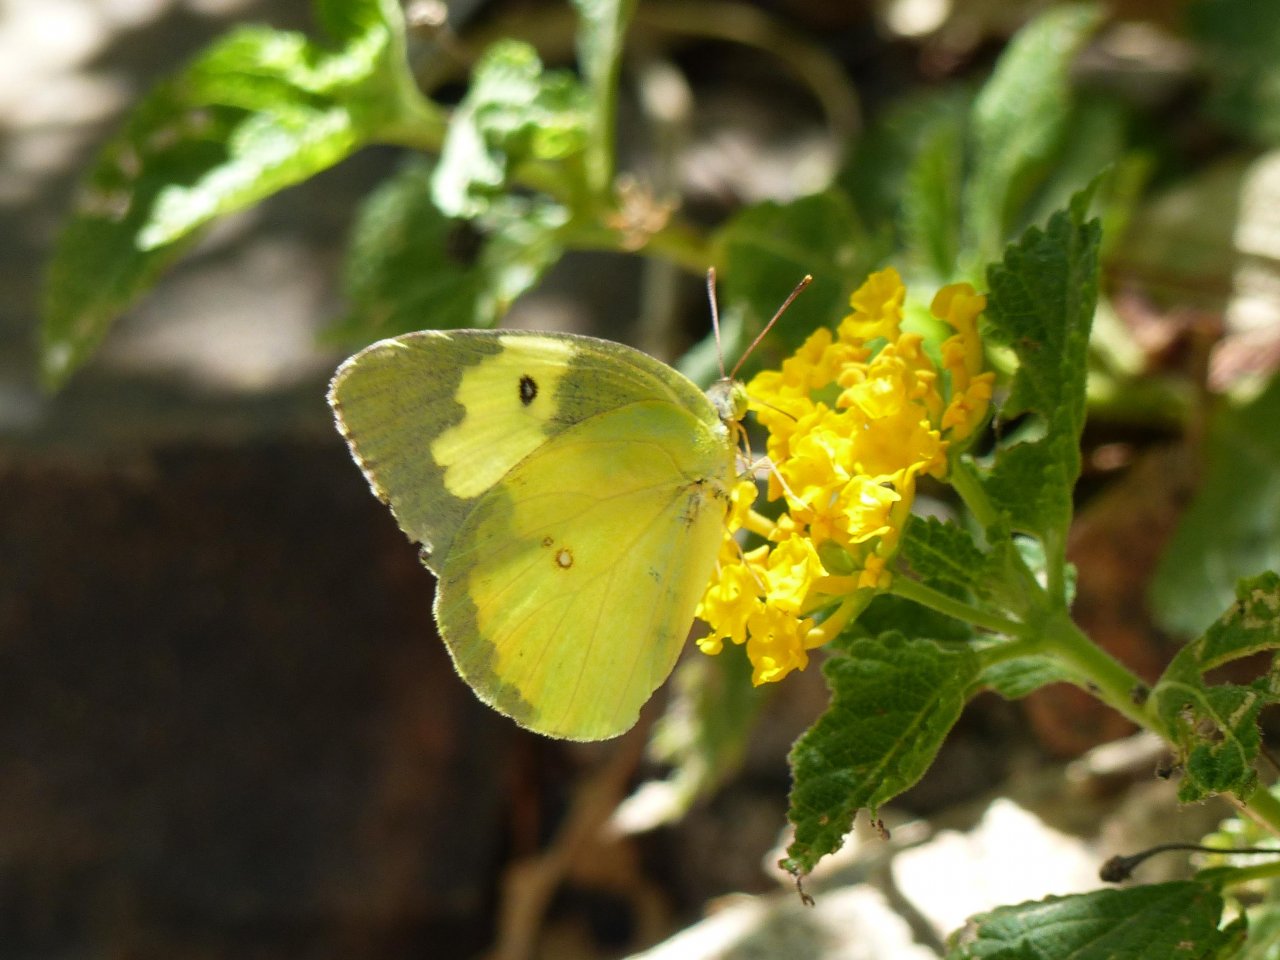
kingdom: Animalia
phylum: Arthropoda
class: Insecta
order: Lepidoptera
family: Pieridae
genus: Zerene
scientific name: Zerene cesonia
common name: Southern Dogface
